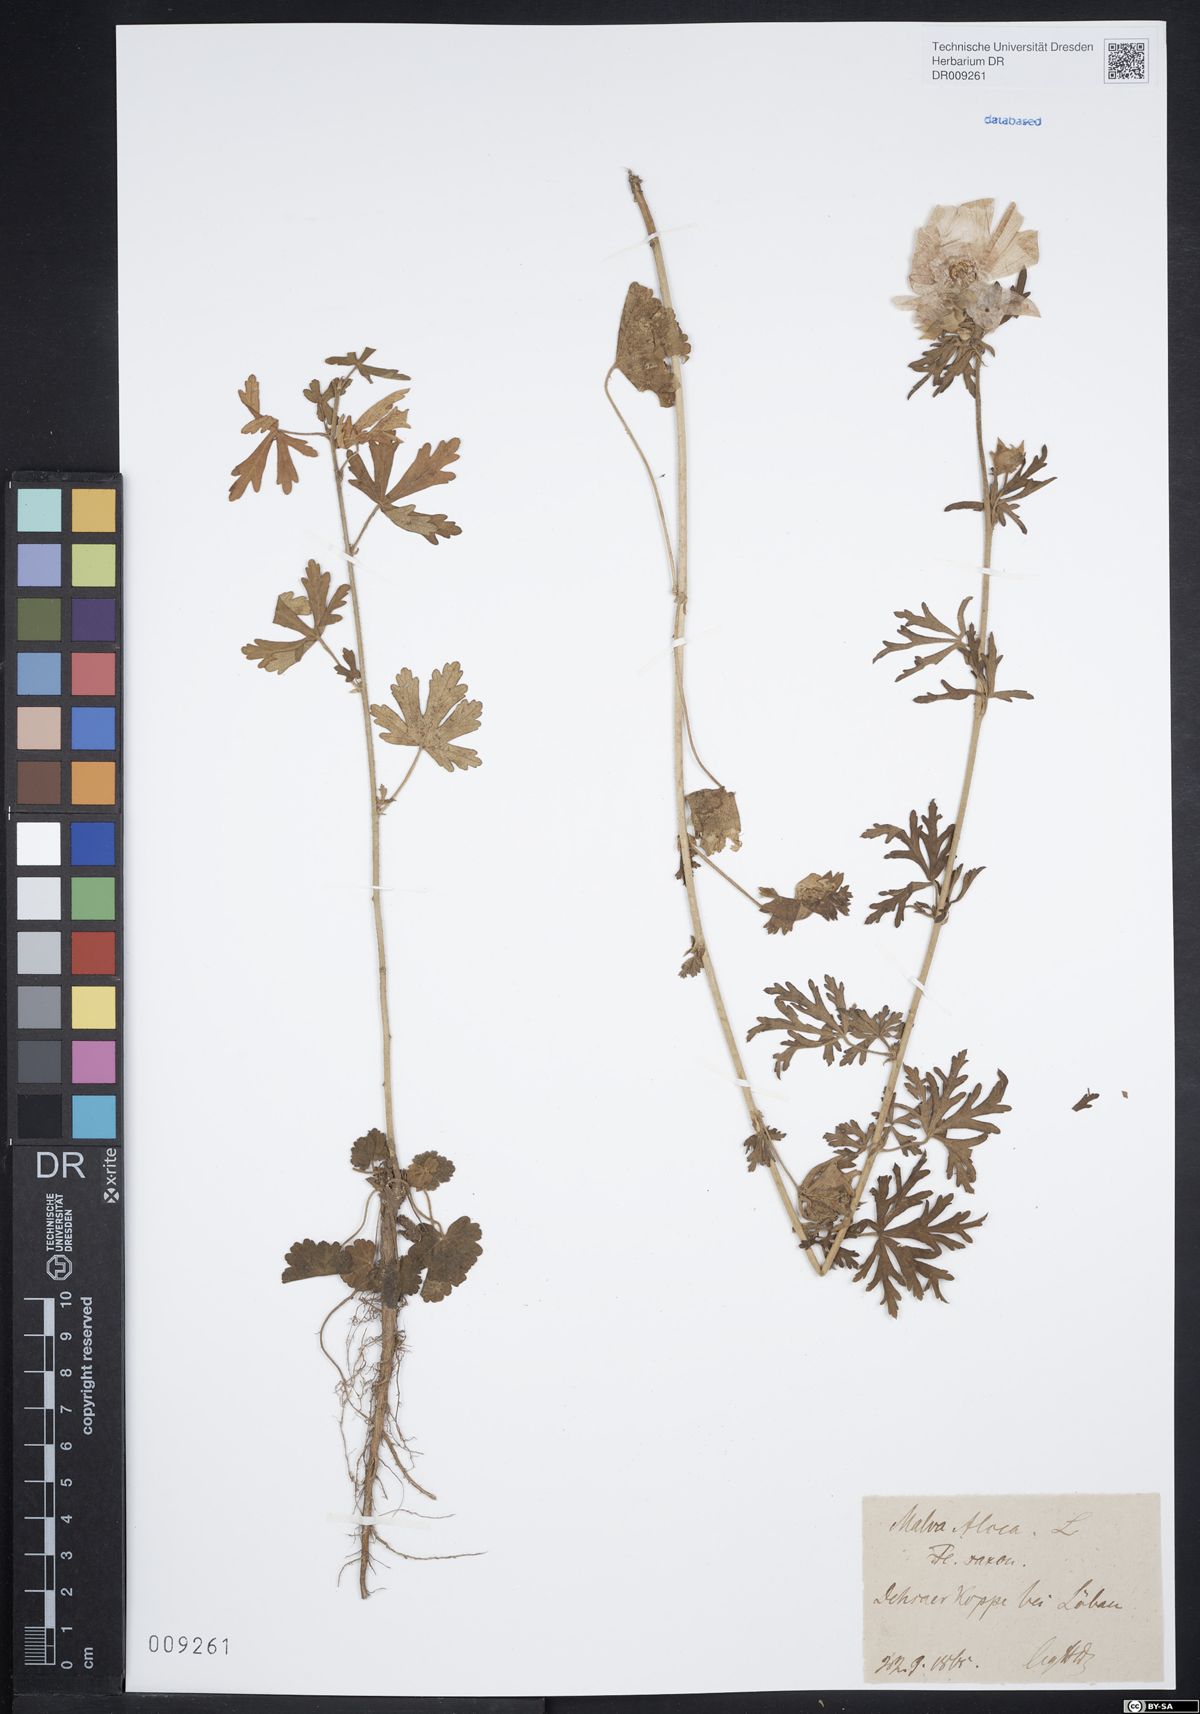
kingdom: Plantae
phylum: Tracheophyta
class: Magnoliopsida
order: Malvales
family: Malvaceae
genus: Malva
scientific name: Malva alcea
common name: Greater musk-mallow
